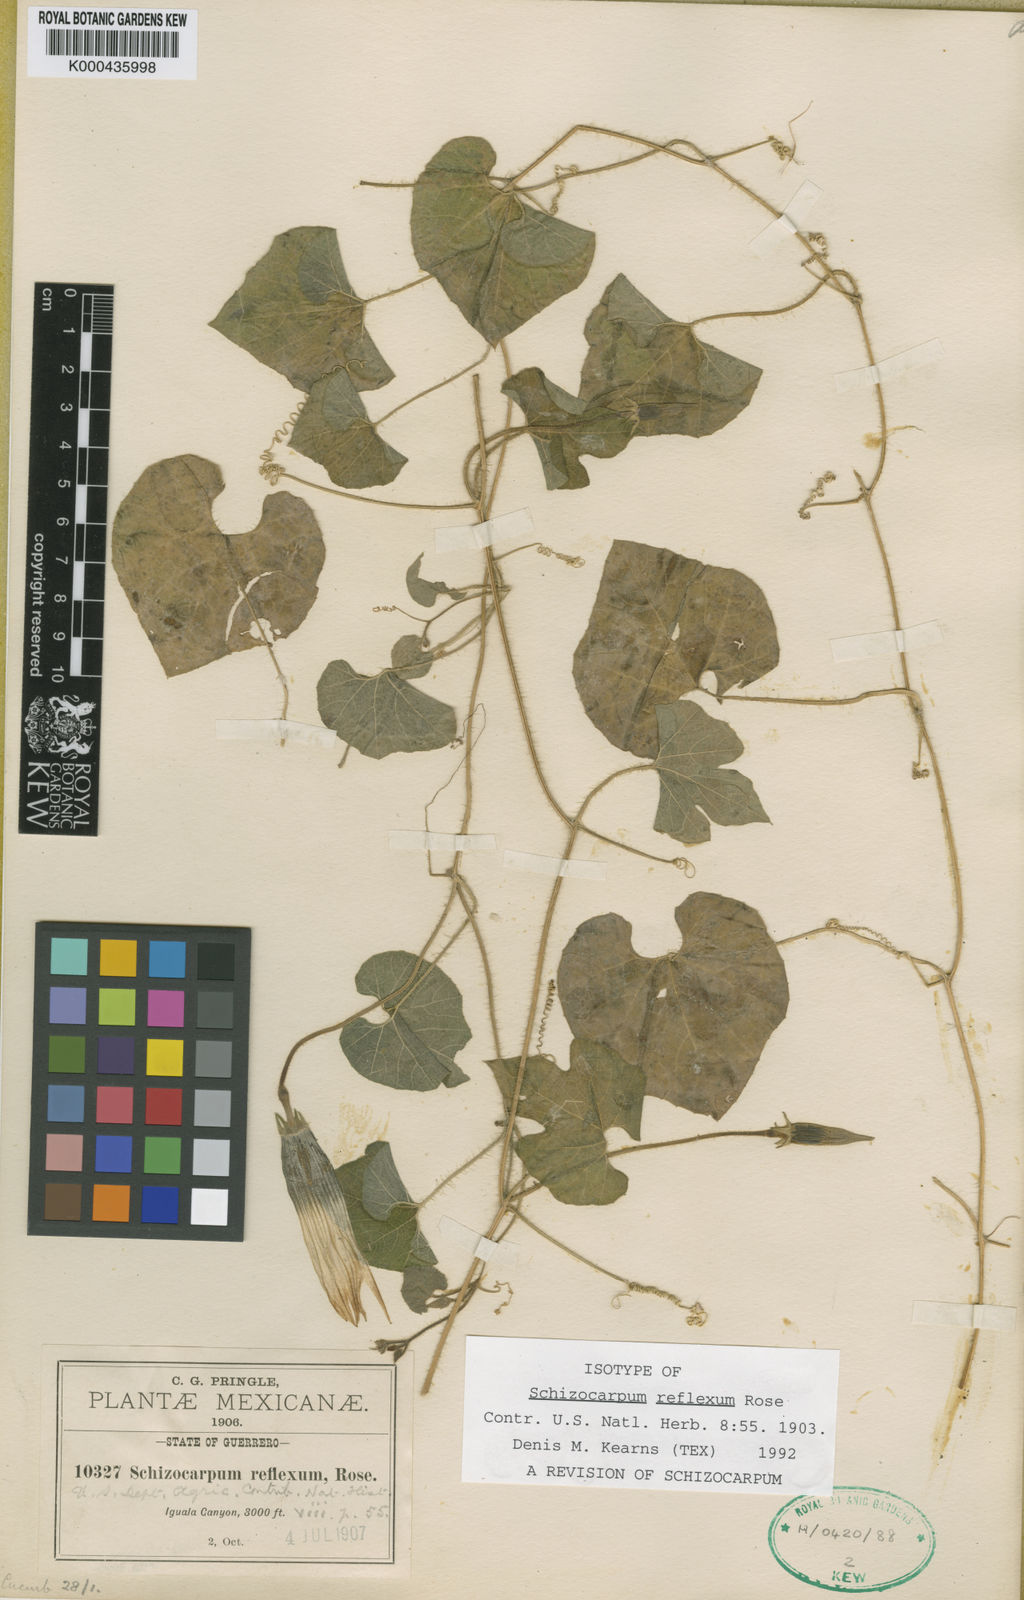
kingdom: Plantae
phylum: Tracheophyta
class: Magnoliopsida
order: Cucurbitales
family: Cucurbitaceae
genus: Schizocarpum
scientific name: Schizocarpum reflexum
